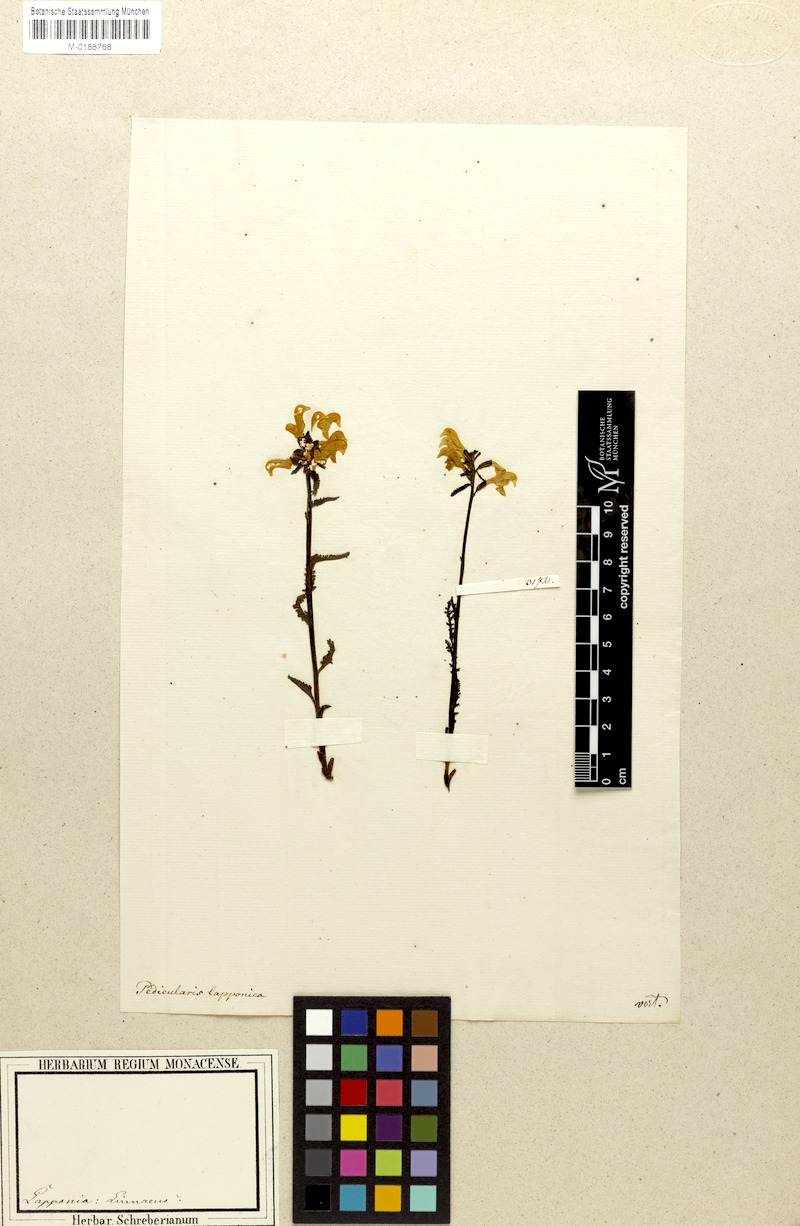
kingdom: Plantae
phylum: Tracheophyta
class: Magnoliopsida
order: Lamiales
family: Orobanchaceae
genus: Pedicularis
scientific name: Pedicularis lapponica
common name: Lapland lousewort
